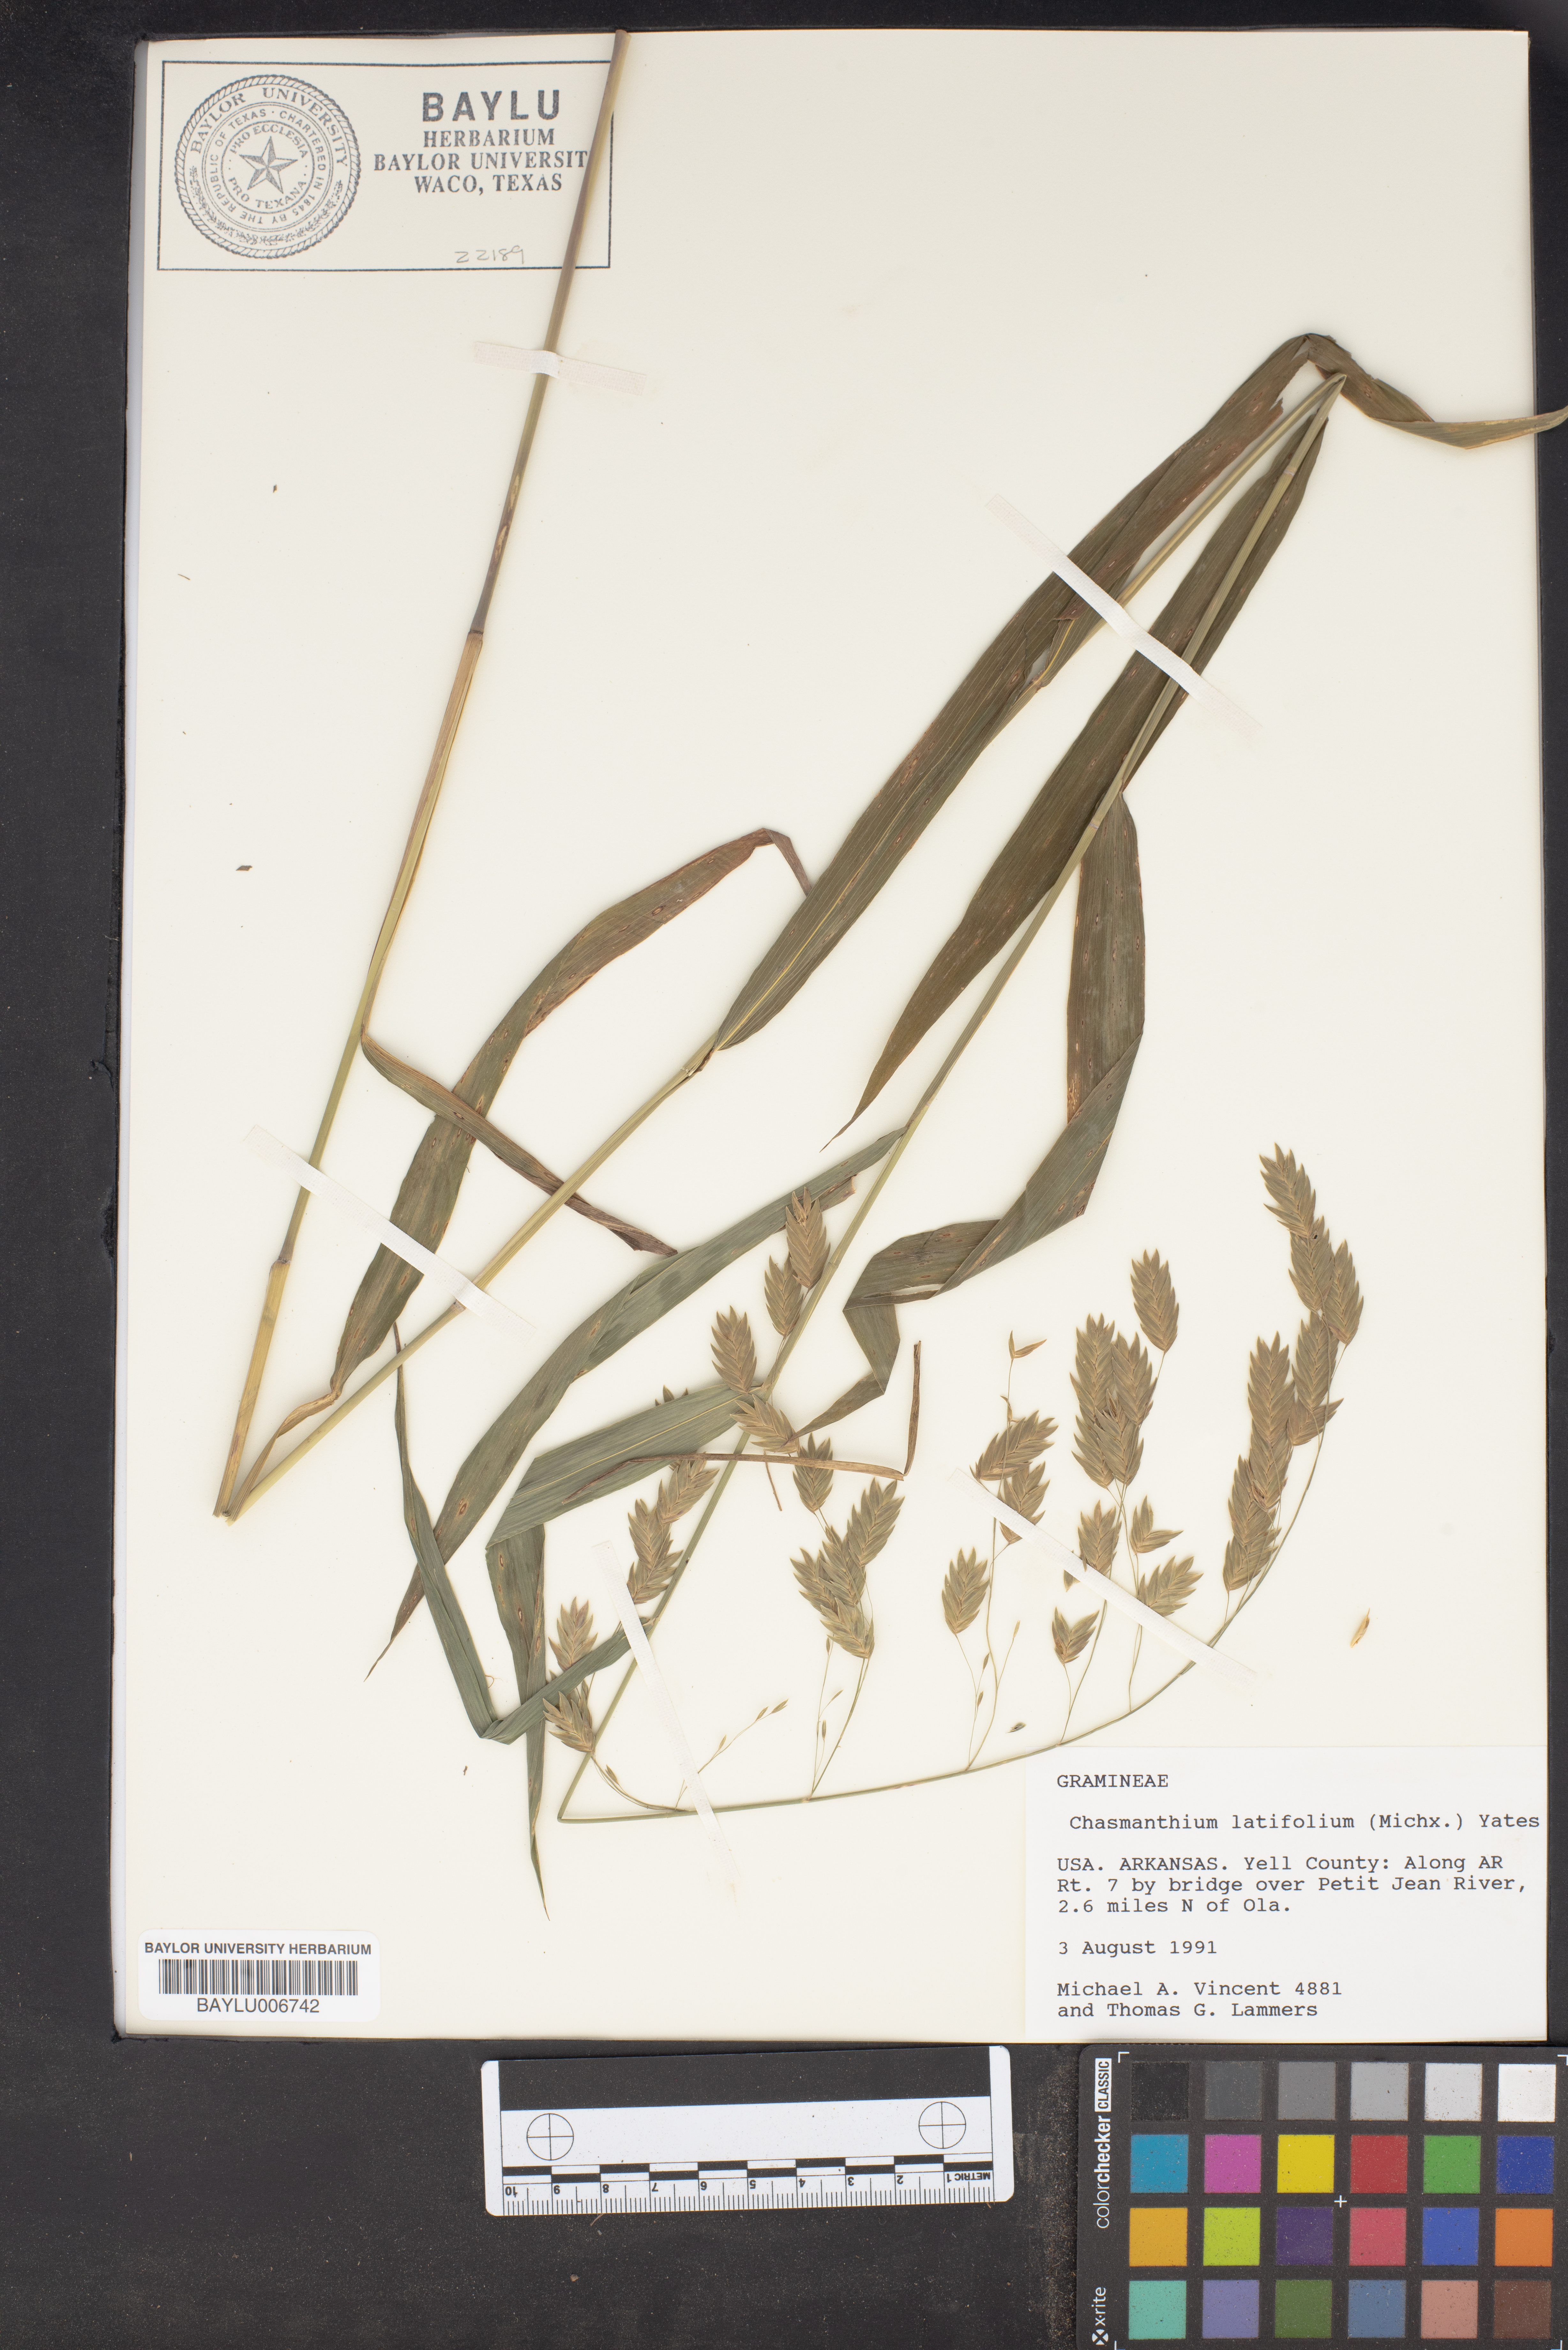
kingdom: Plantae
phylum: Tracheophyta
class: Liliopsida
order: Poales
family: Poaceae
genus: Chasmanthium
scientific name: Chasmanthium latifolium
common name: Broad-leaved chasmanthium
